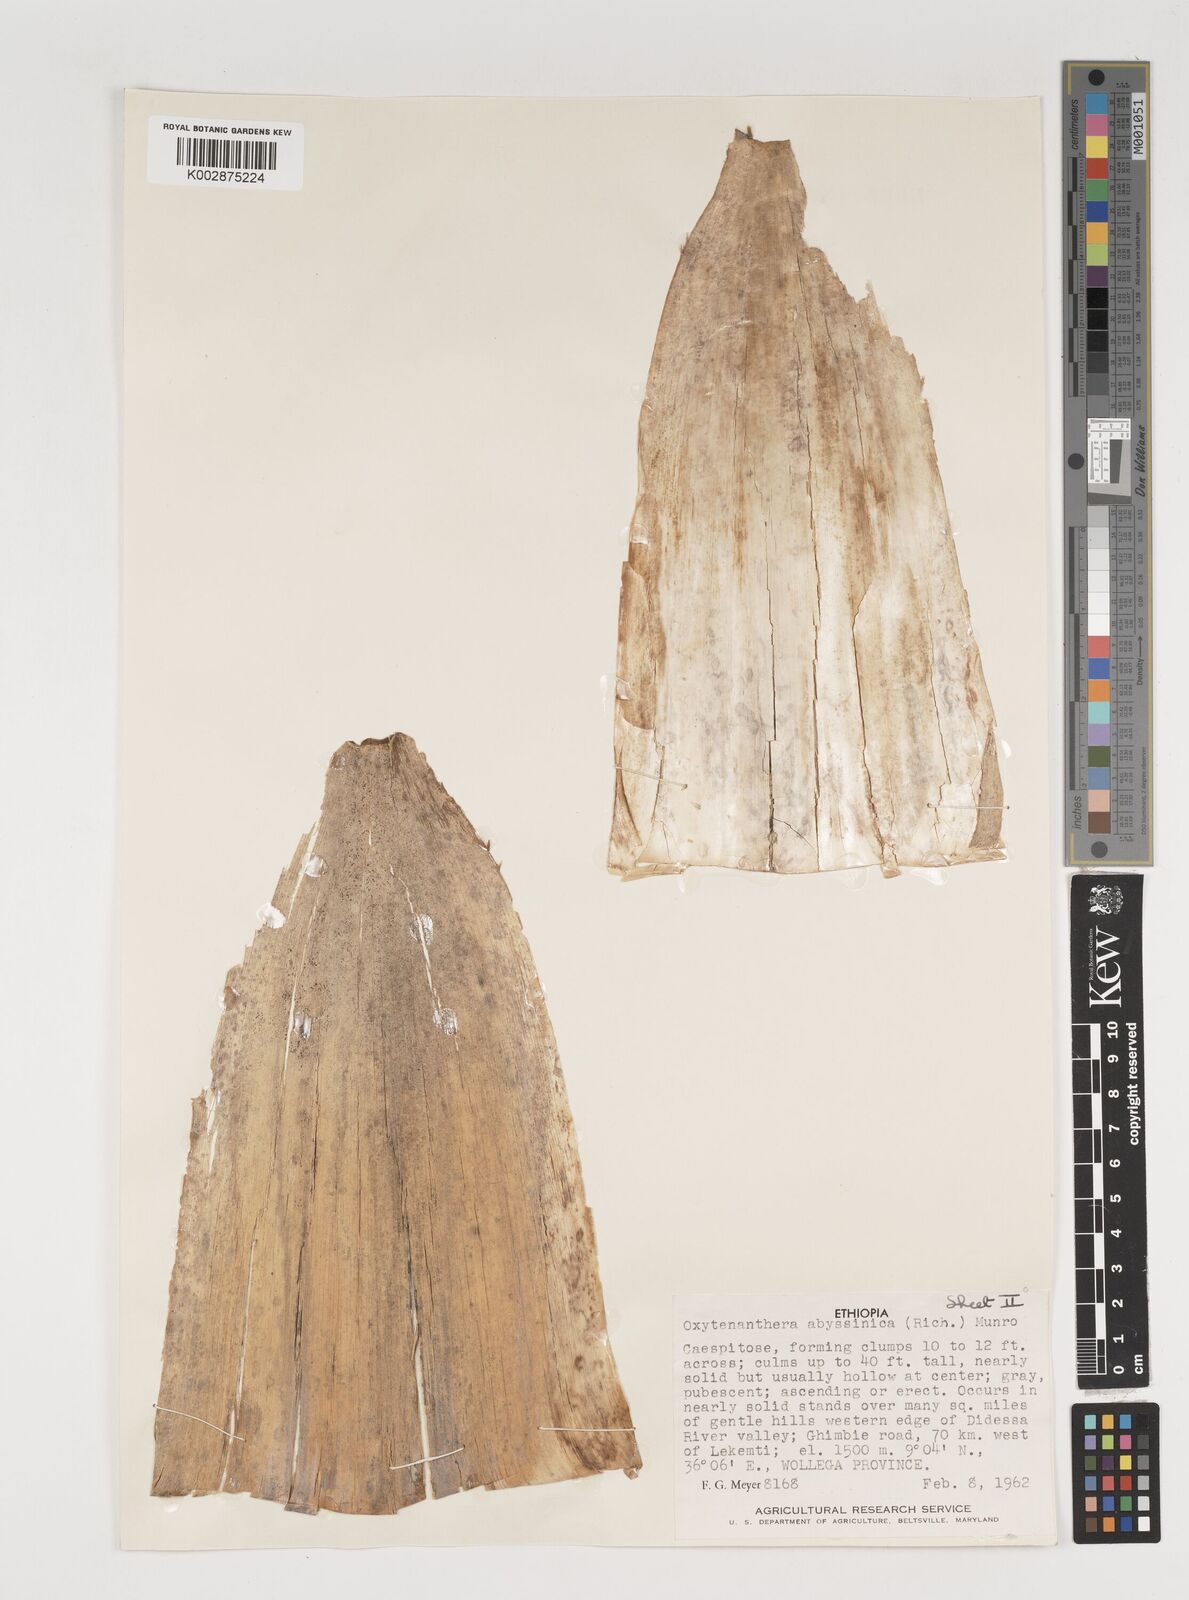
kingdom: Plantae
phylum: Tracheophyta
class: Liliopsida
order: Poales
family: Poaceae
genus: Oxytenanthera
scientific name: Oxytenanthera abyssinica
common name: Wine bamboo
